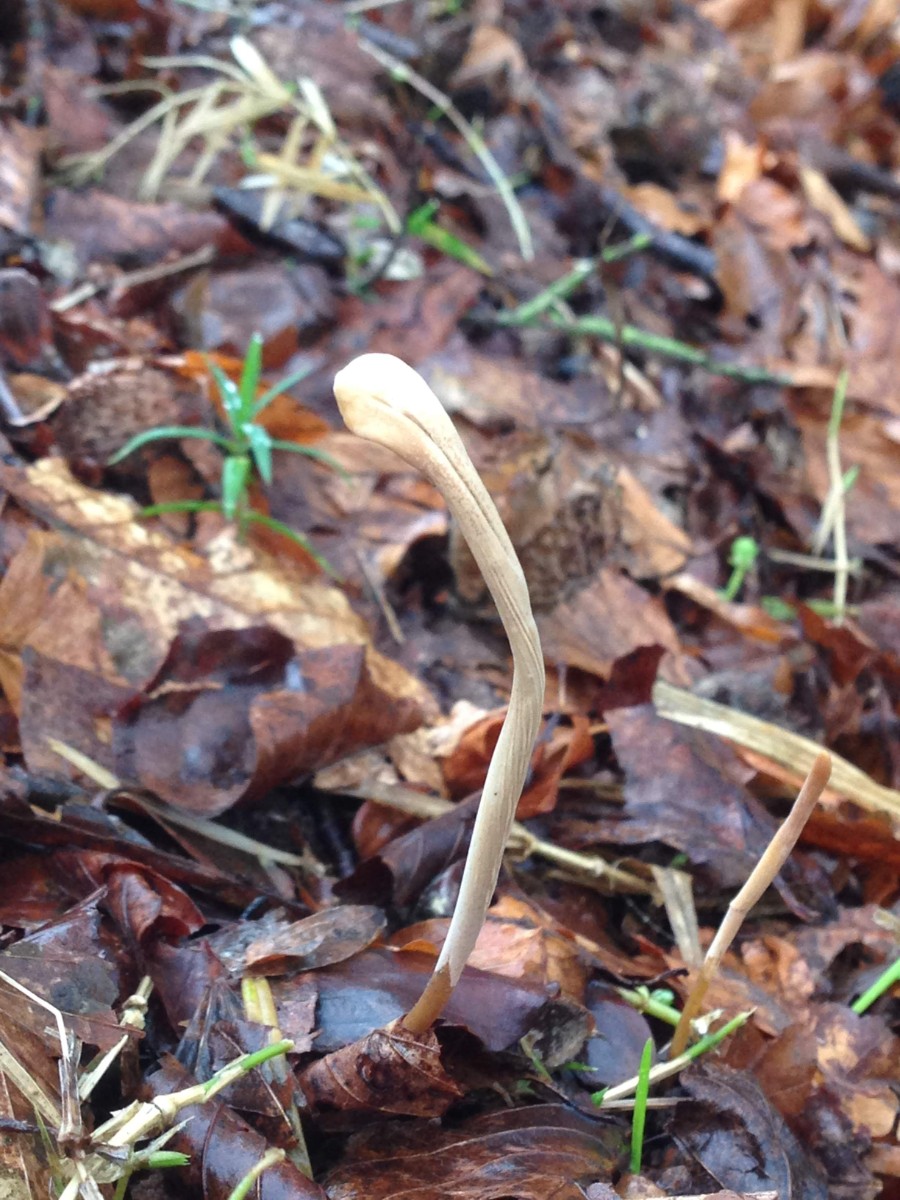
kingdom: Fungi
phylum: Basidiomycota
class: Agaricomycetes
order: Agaricales
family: Typhulaceae
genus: Typhula
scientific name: Typhula fistulosa
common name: pibet rørkølle
